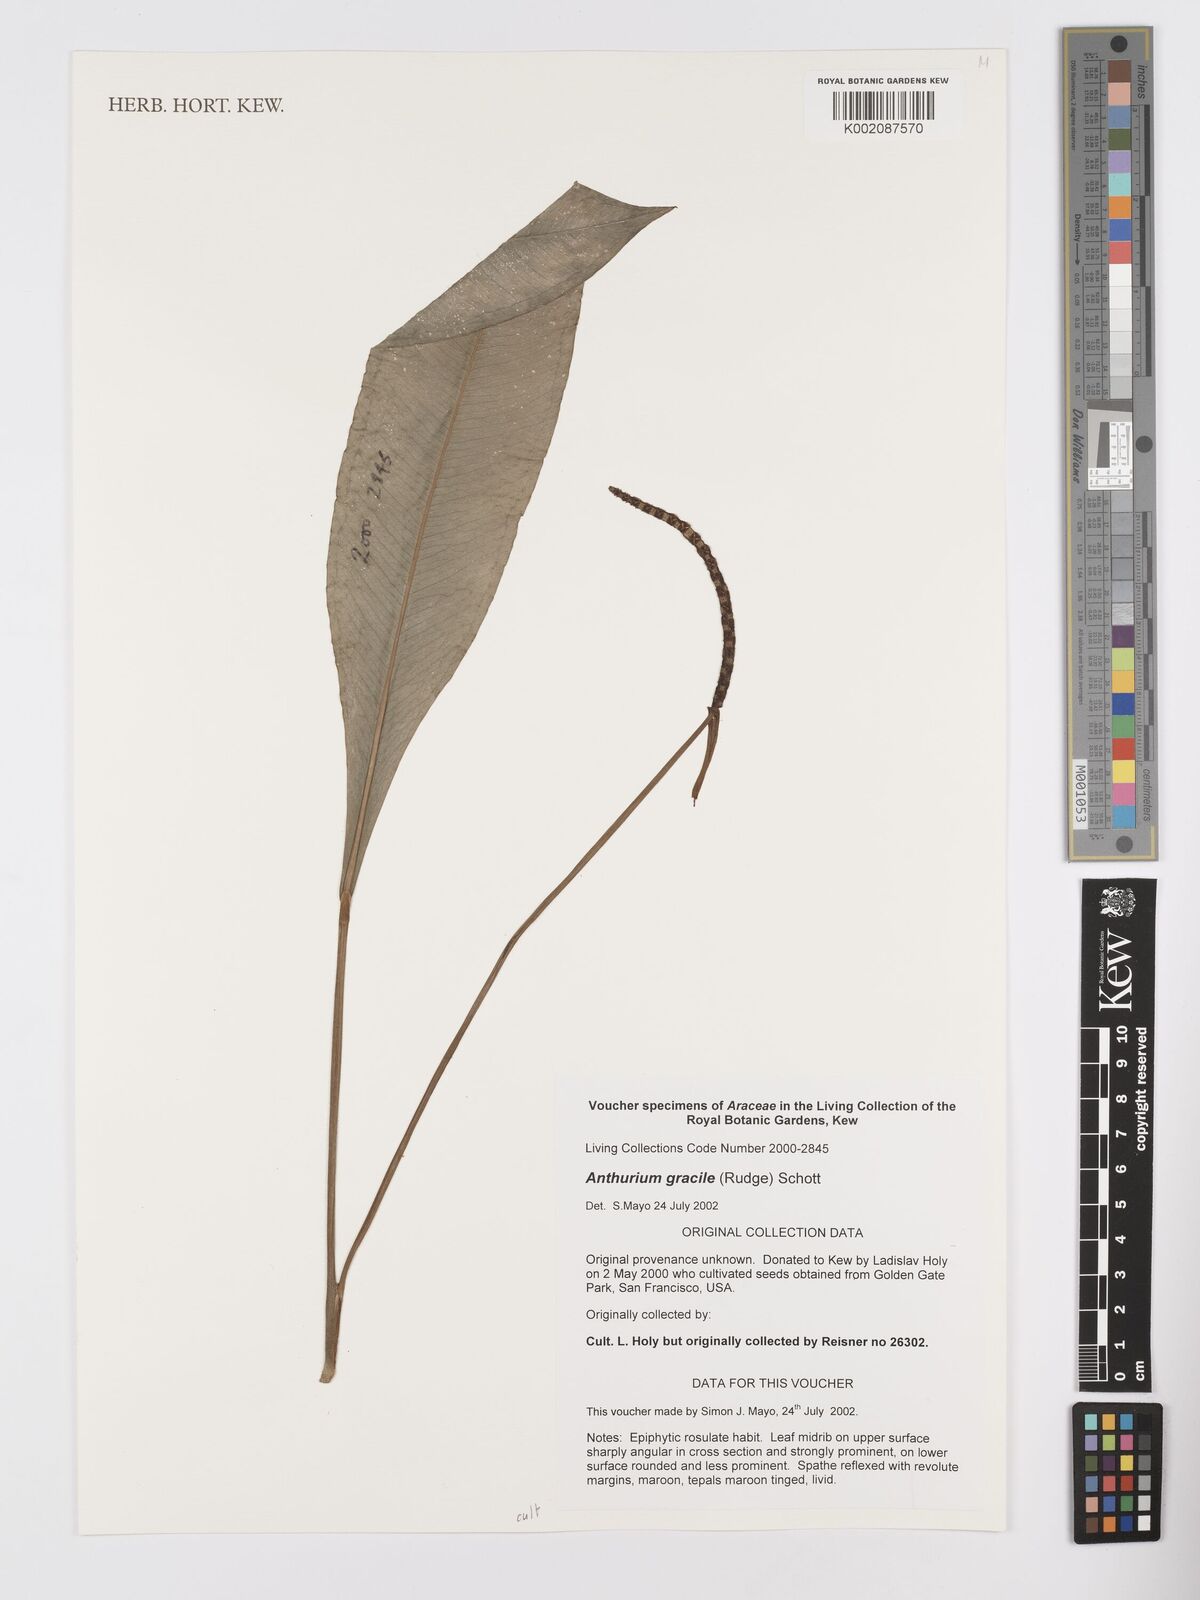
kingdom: Plantae
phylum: Tracheophyta
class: Liliopsida
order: Alismatales
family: Araceae
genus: Anthurium
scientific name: Anthurium gracile
